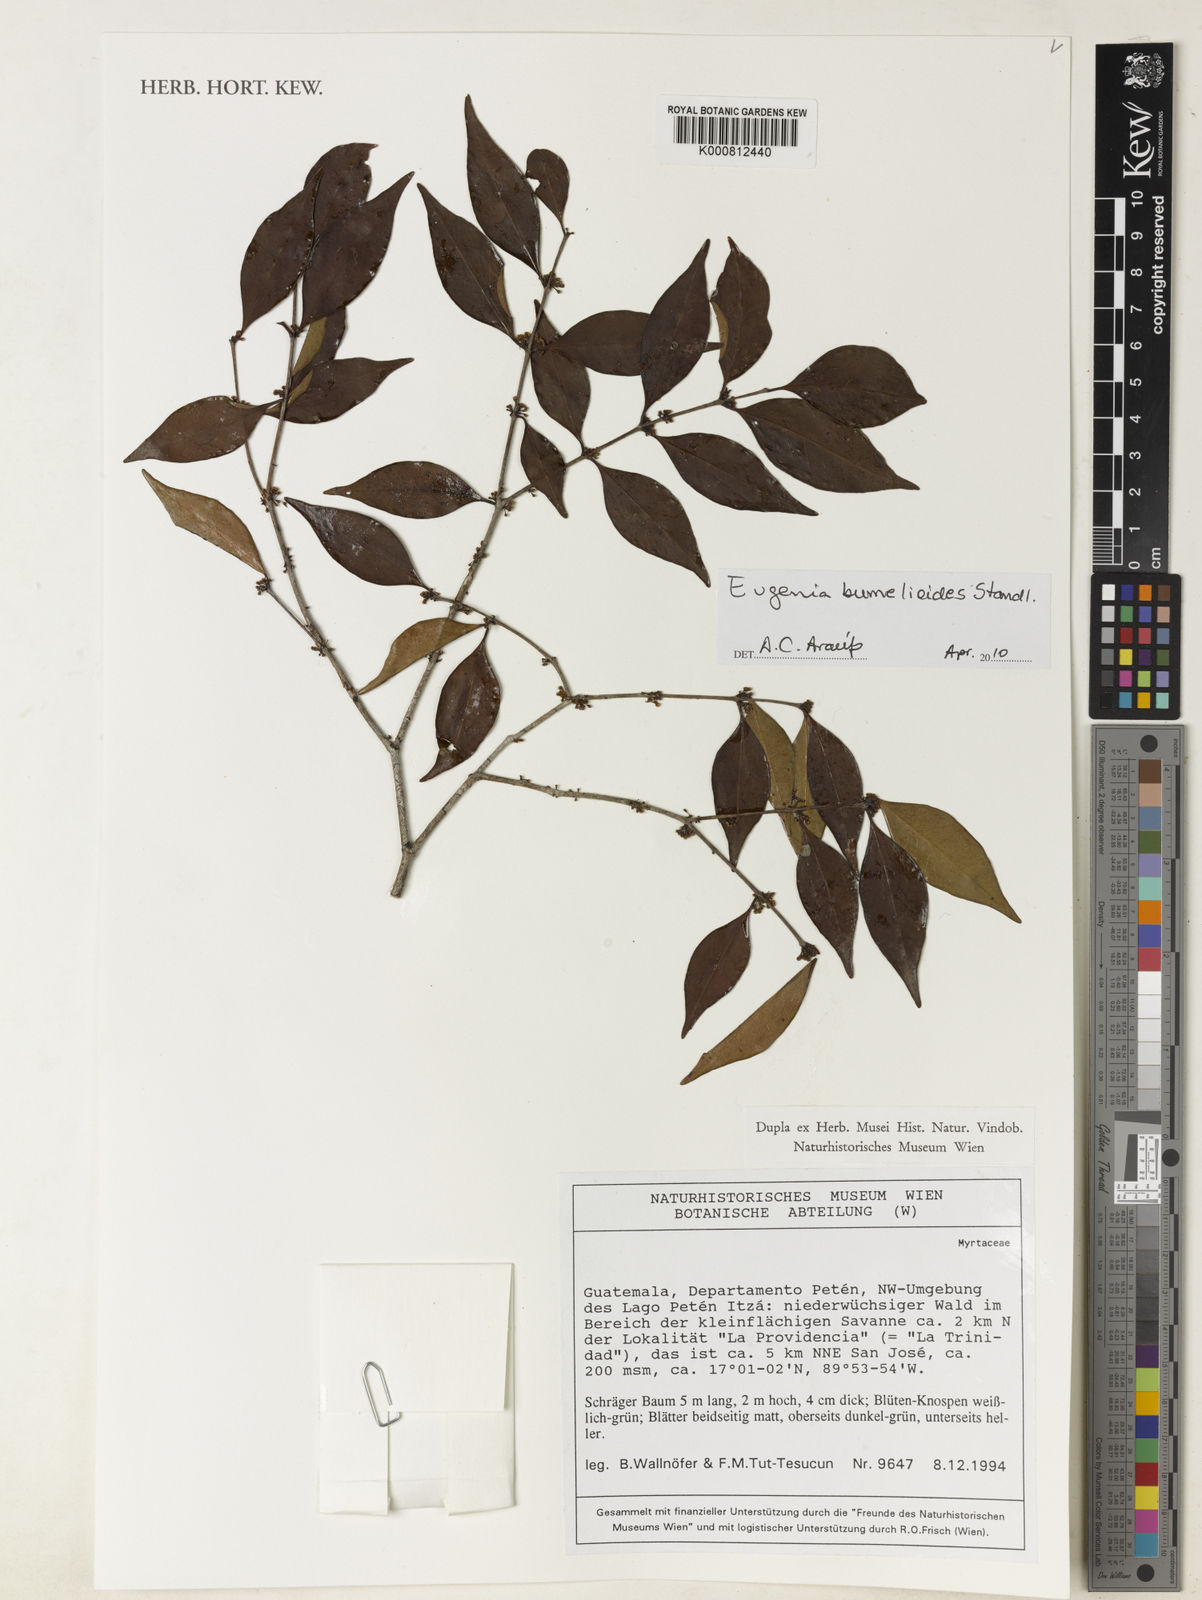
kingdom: Plantae
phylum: Tracheophyta
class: Magnoliopsida
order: Myrtales
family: Myrtaceae
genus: Eugenia
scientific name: Eugenia bumelioides
